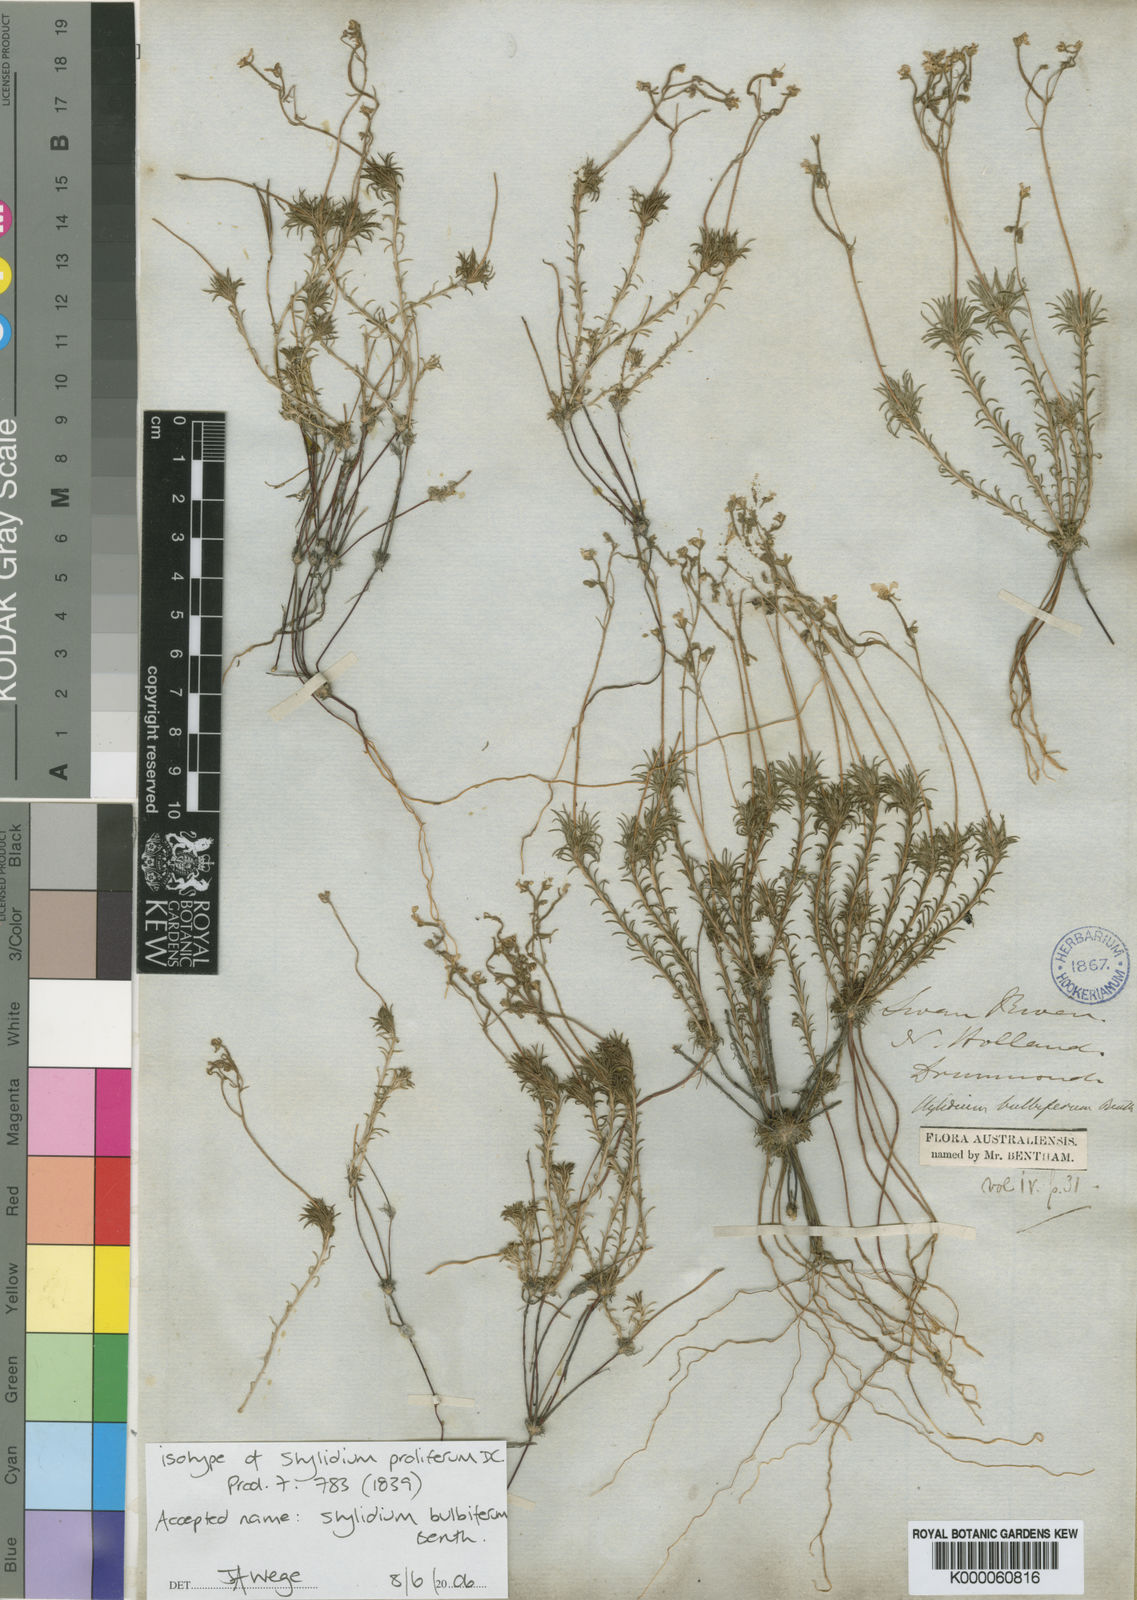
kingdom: Plantae
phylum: Tracheophyta
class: Magnoliopsida
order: Asterales
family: Stylidiaceae
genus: Stylidium
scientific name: Stylidium bulbiferum
